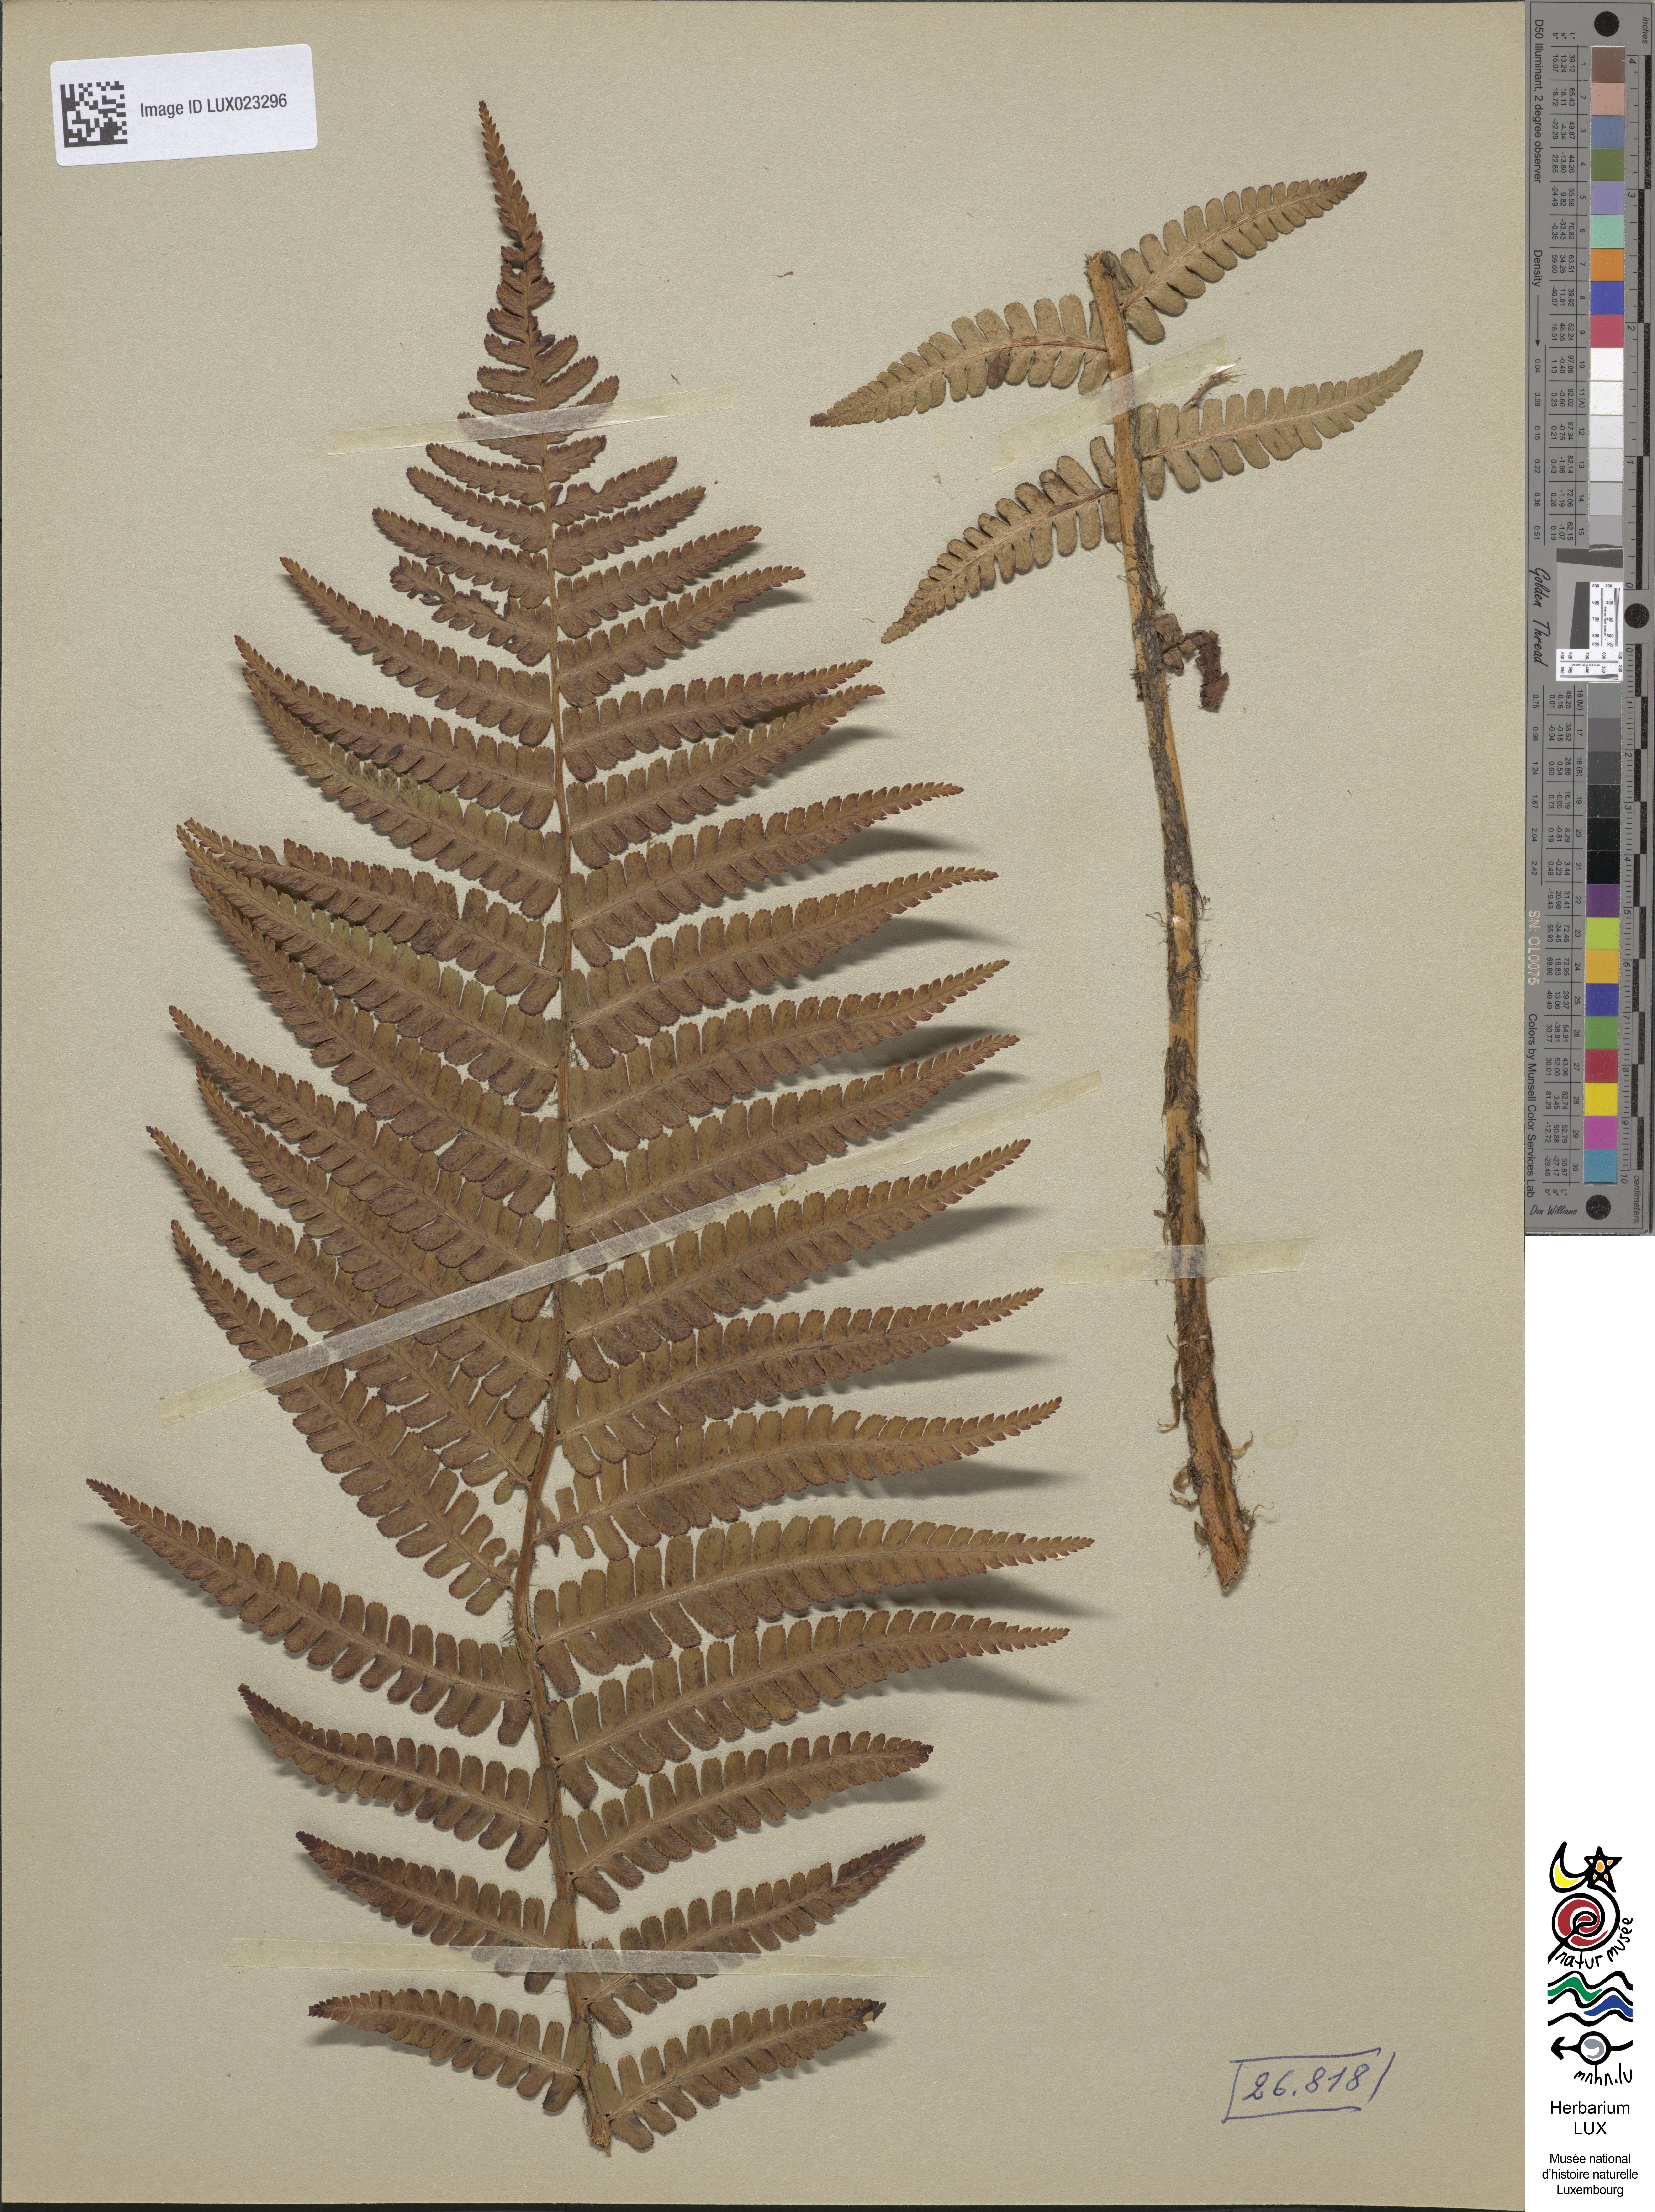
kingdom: Plantae
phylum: Tracheophyta
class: Polypodiopsida
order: Polypodiales
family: Dryopteridaceae
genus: Dryopteris
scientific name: Dryopteris paleacea
